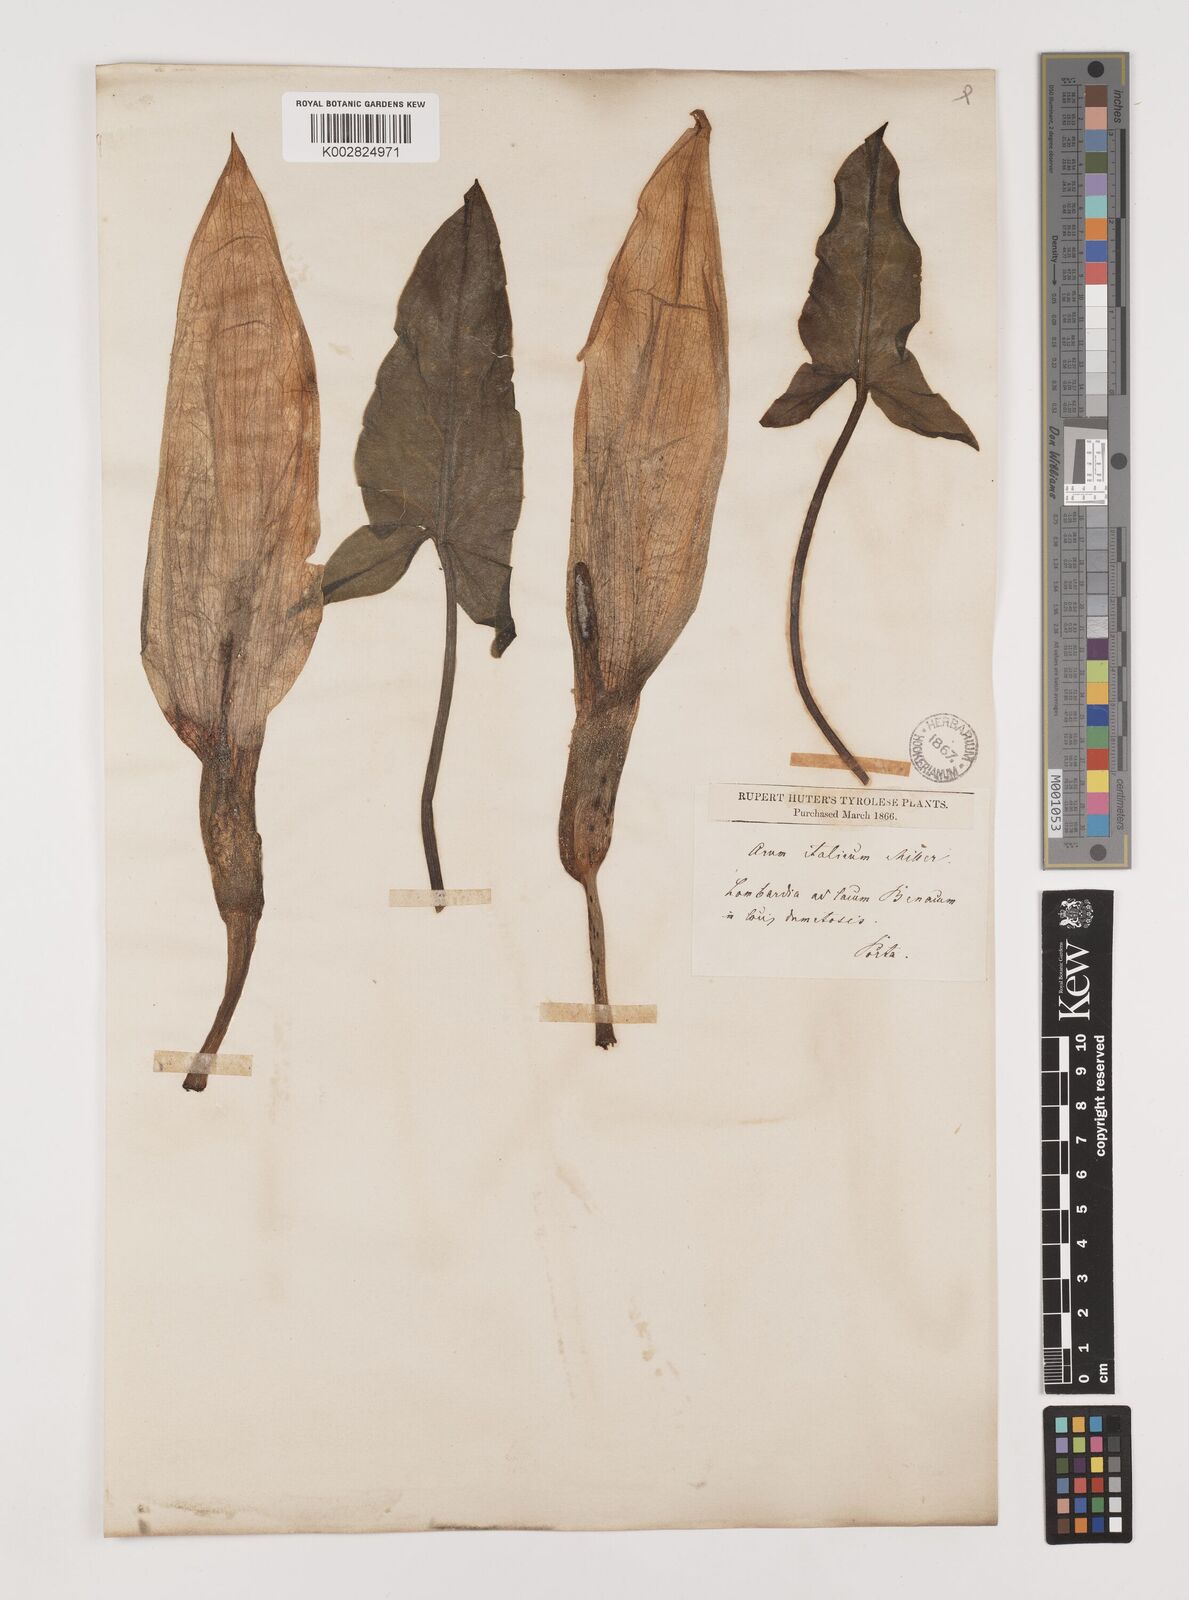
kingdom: Plantae
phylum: Tracheophyta
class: Liliopsida
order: Alismatales
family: Araceae
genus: Arum
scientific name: Arum italicum
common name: Italian lords-and-ladies
